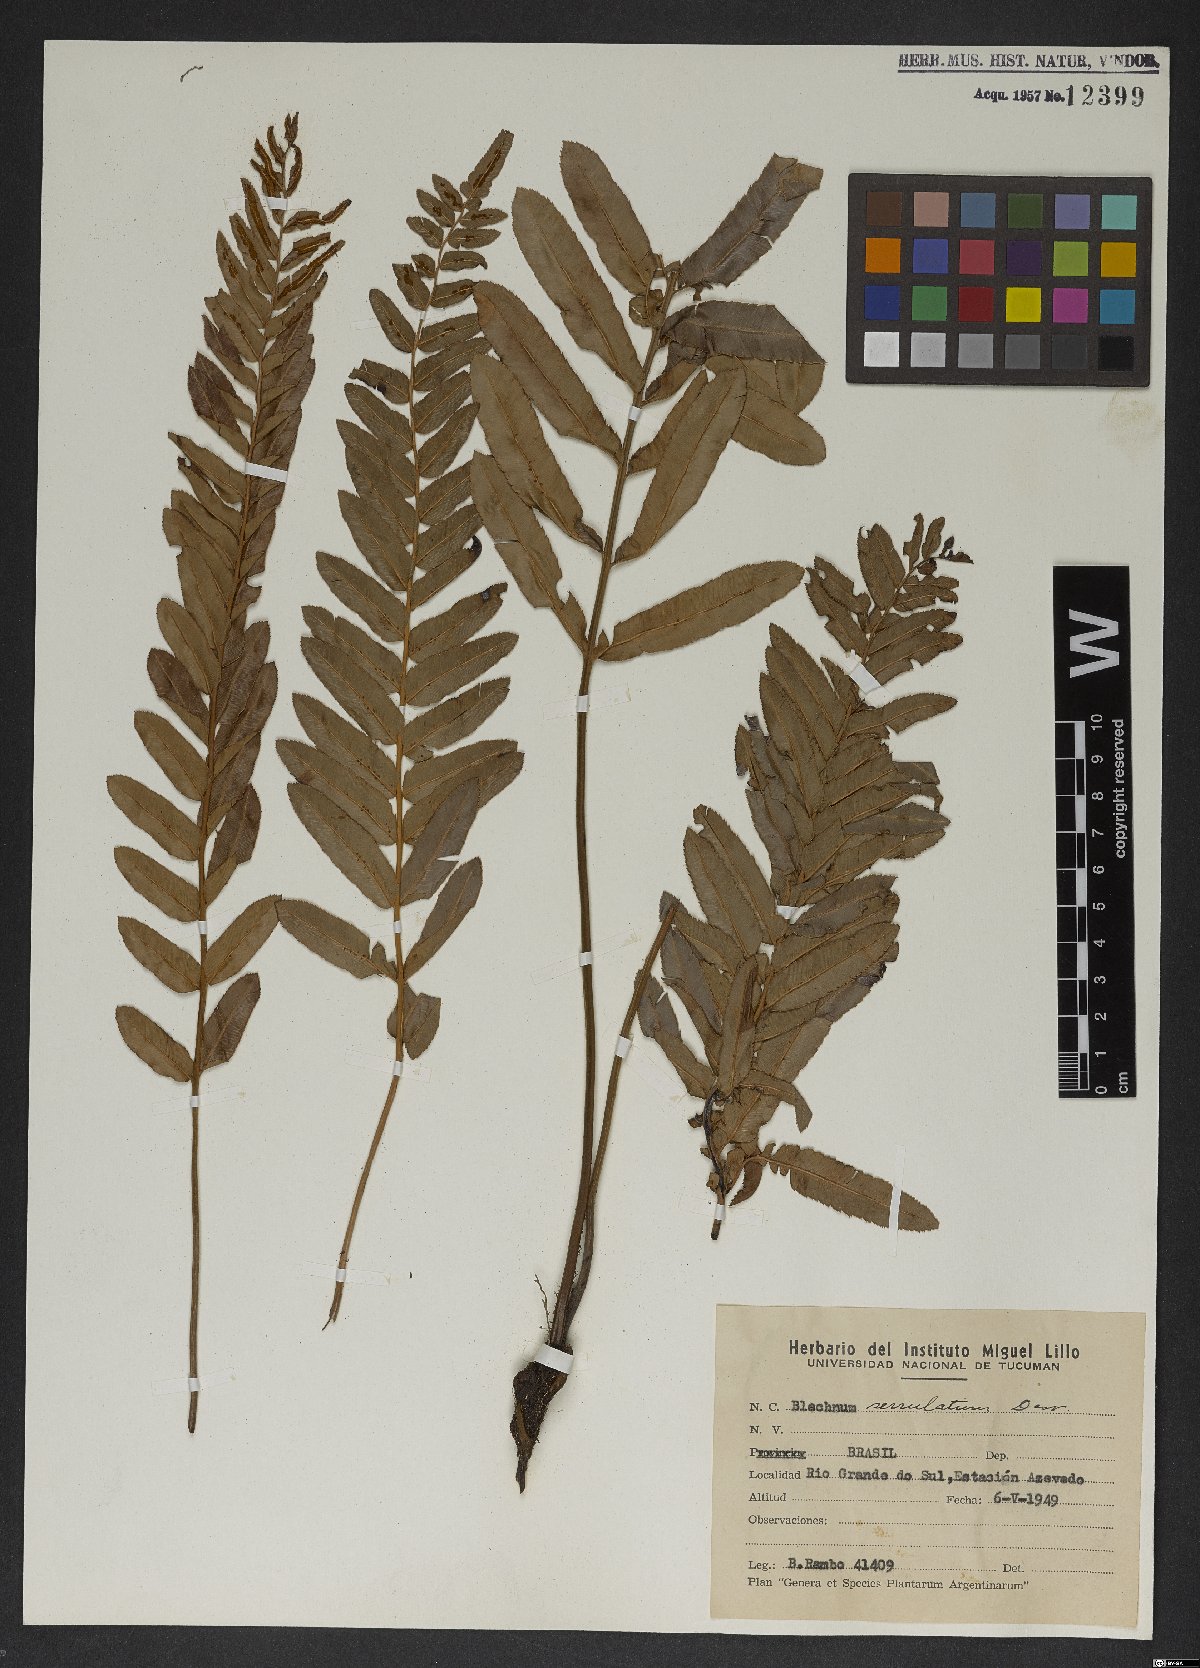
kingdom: Plantae
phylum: Tracheophyta
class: Polypodiopsida
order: Polypodiales
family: Blechnaceae
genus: Telmatoblechnum
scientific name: Telmatoblechnum serrulatum
